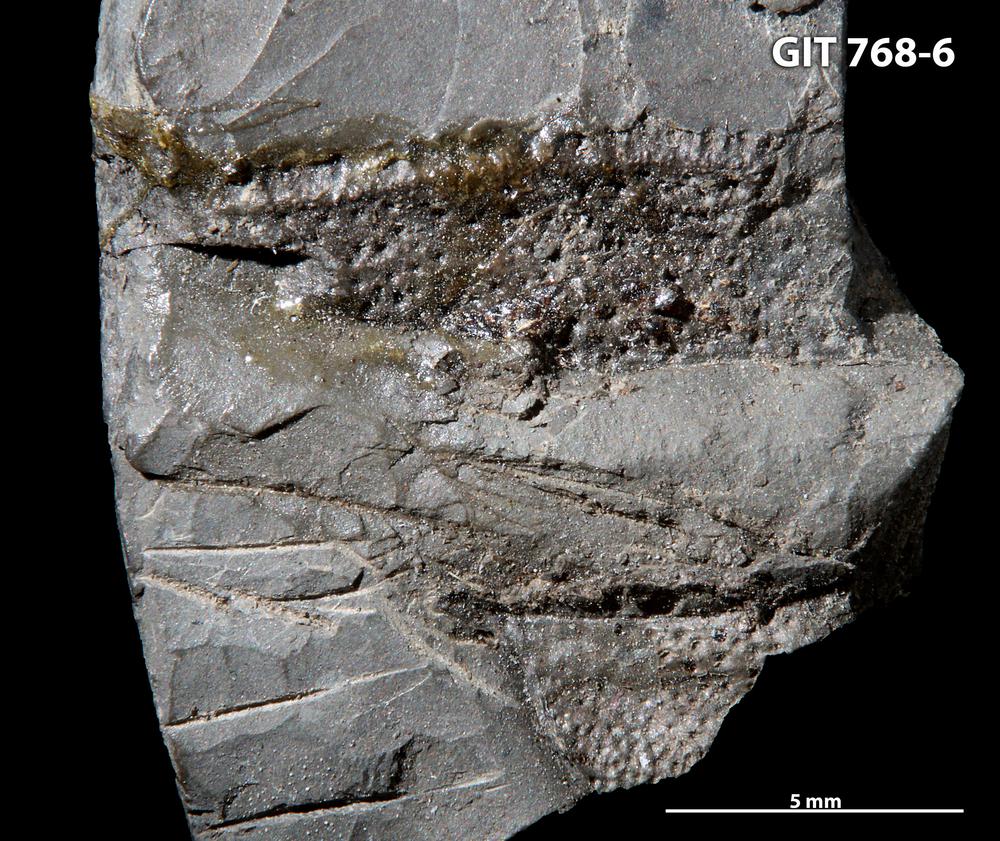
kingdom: Animalia
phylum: Chordata
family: Holonematidae
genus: Groenlandaspis
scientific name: Groenlandaspis
